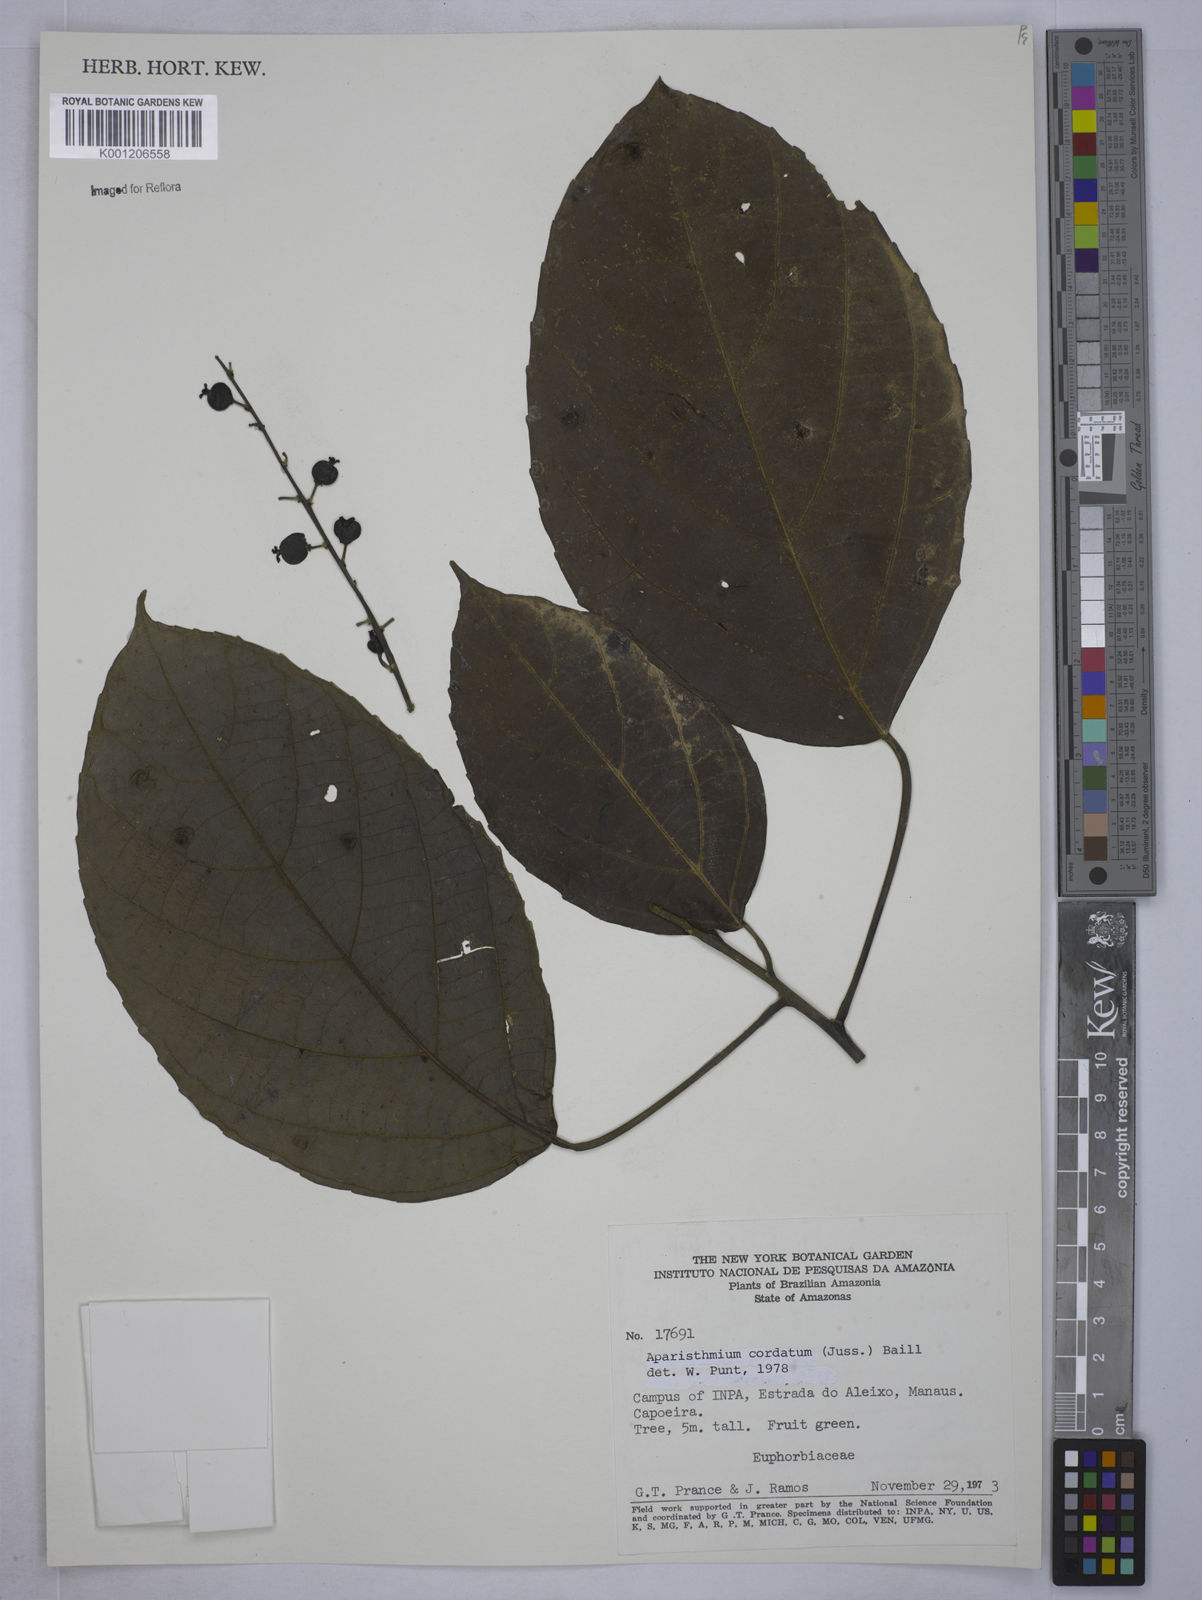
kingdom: Plantae
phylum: Tracheophyta
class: Magnoliopsida
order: Malpighiales
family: Euphorbiaceae
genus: Aparisthmium
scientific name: Aparisthmium cordatum
